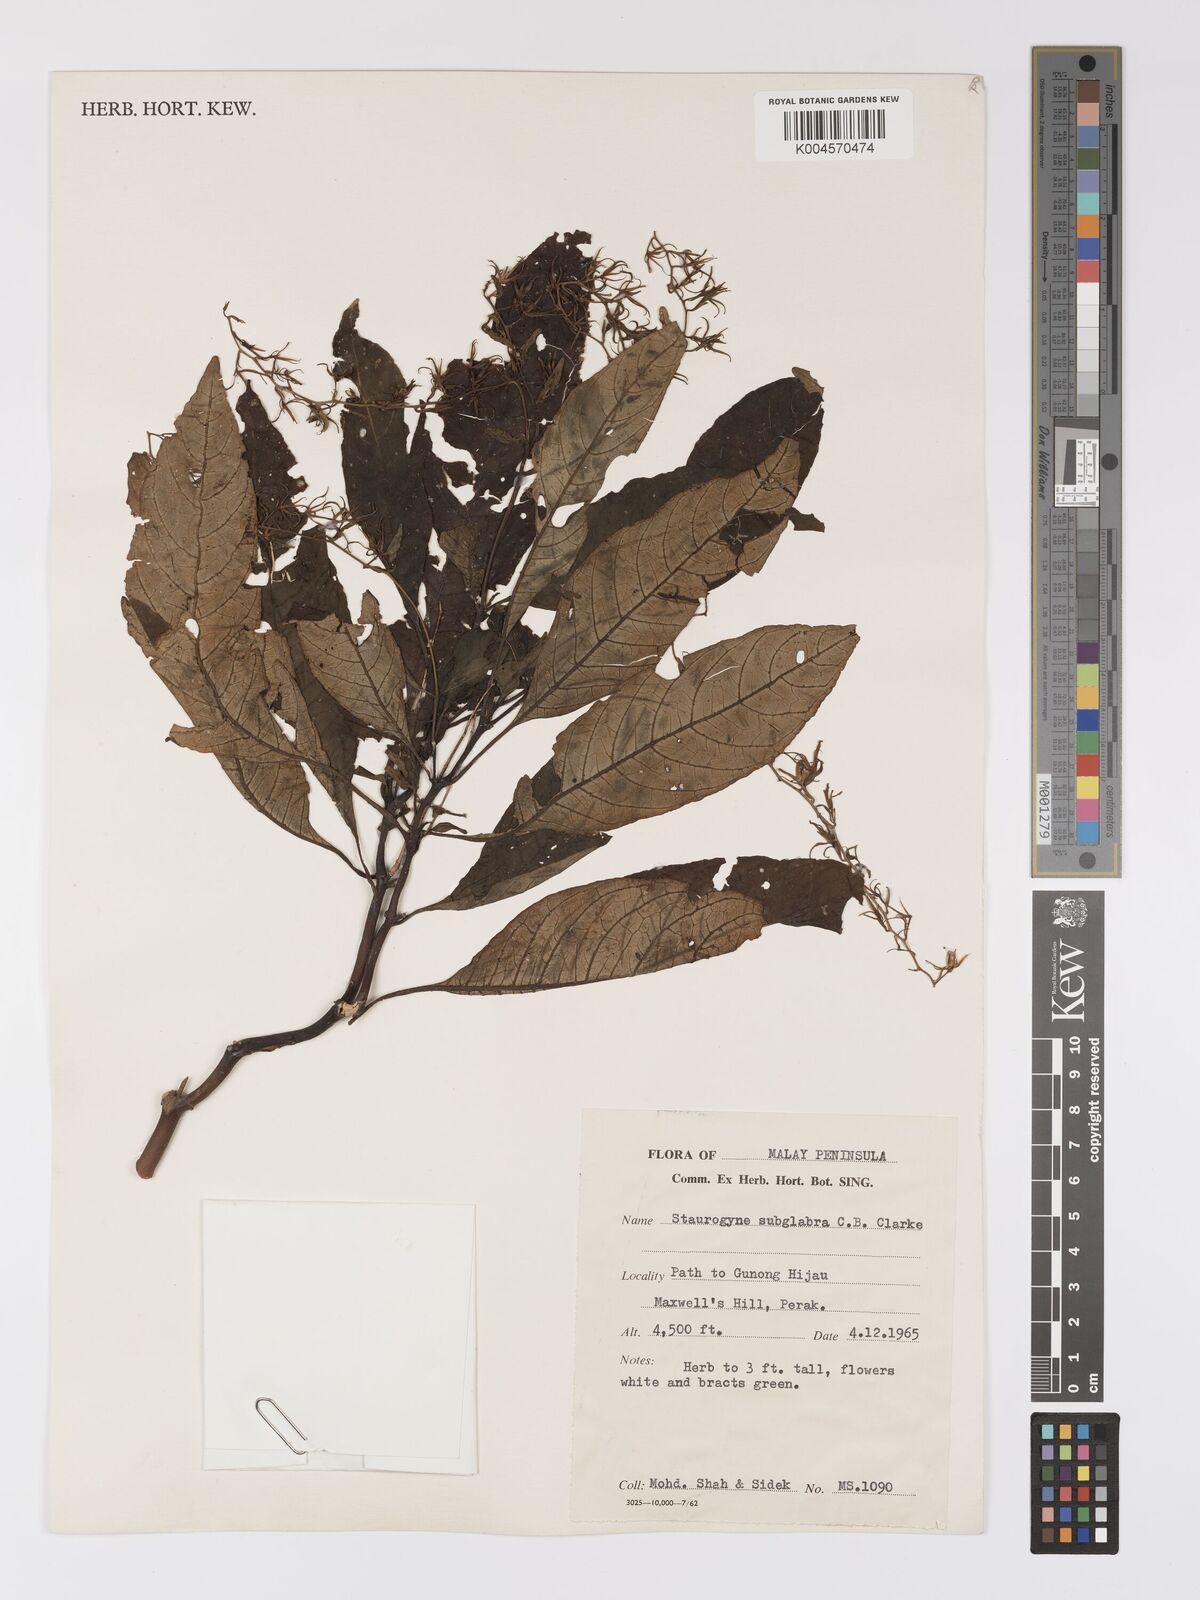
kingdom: Plantae
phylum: Tracheophyta
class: Magnoliopsida
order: Lamiales
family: Acanthaceae
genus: Staurogyne
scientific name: Staurogyne subglabra
